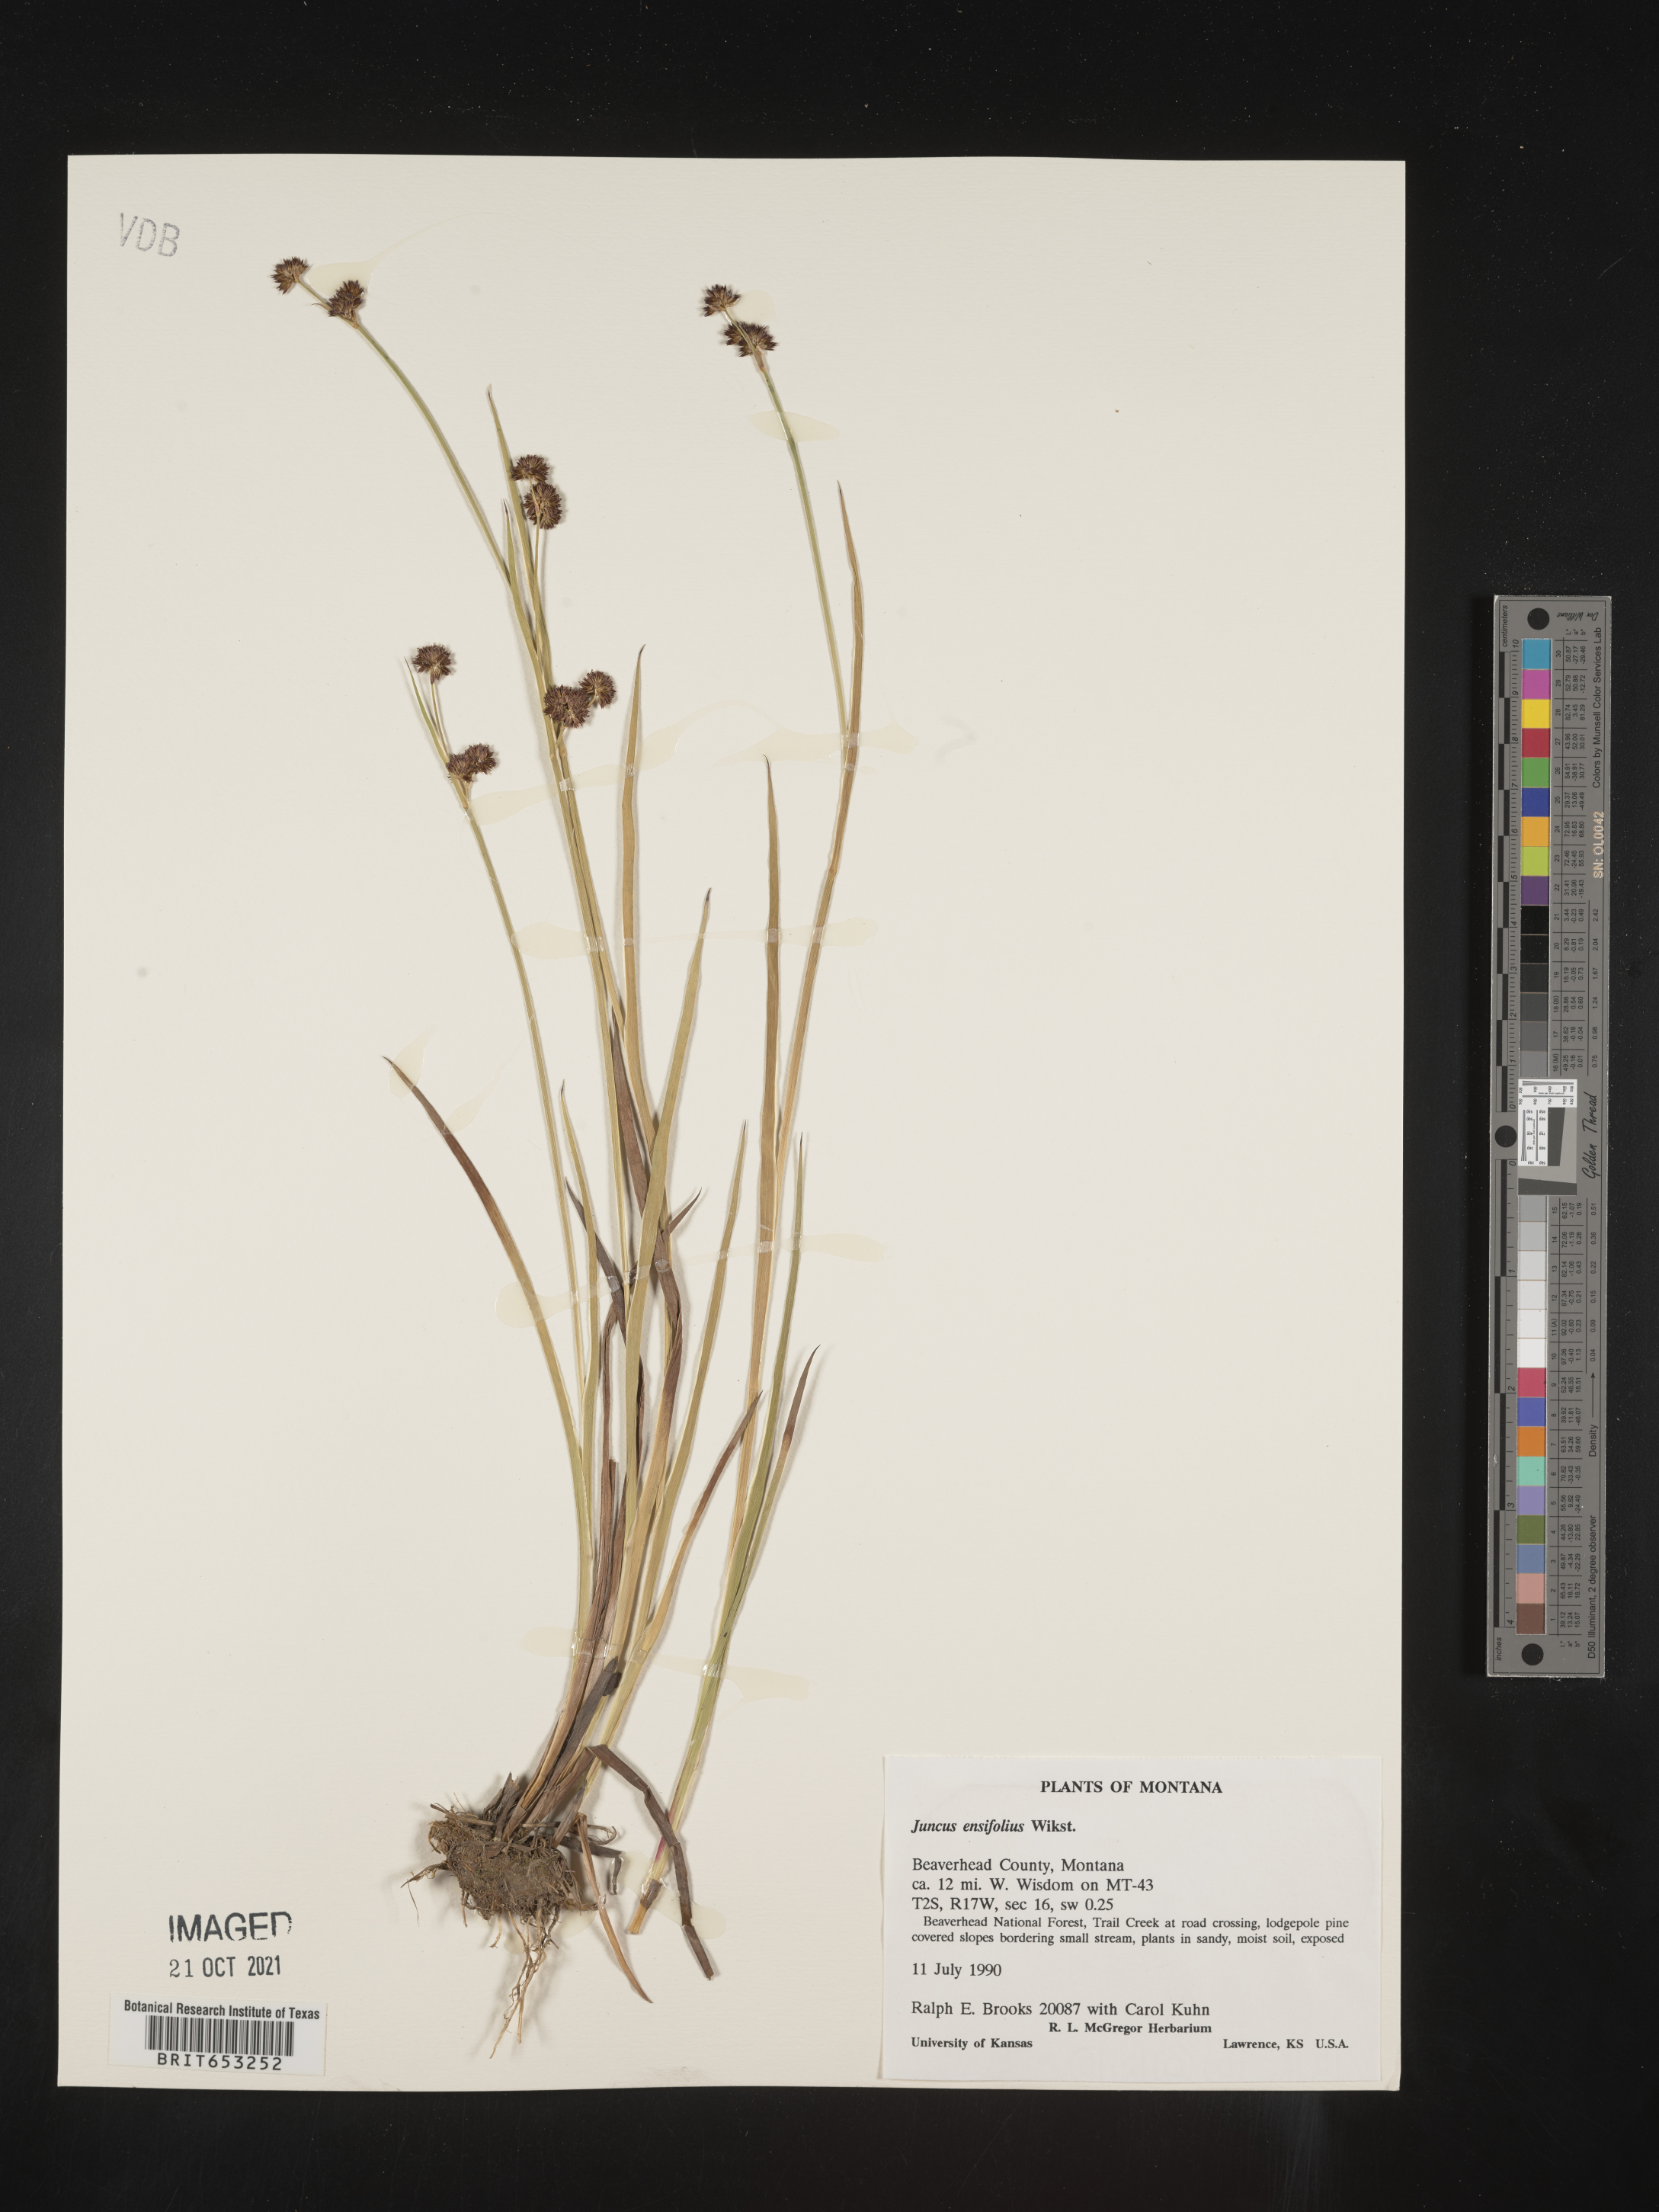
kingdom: Plantae
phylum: Tracheophyta
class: Liliopsida
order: Poales
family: Juncaceae
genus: Juncus
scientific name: Juncus ensifolius
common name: Sword-leaved rush
